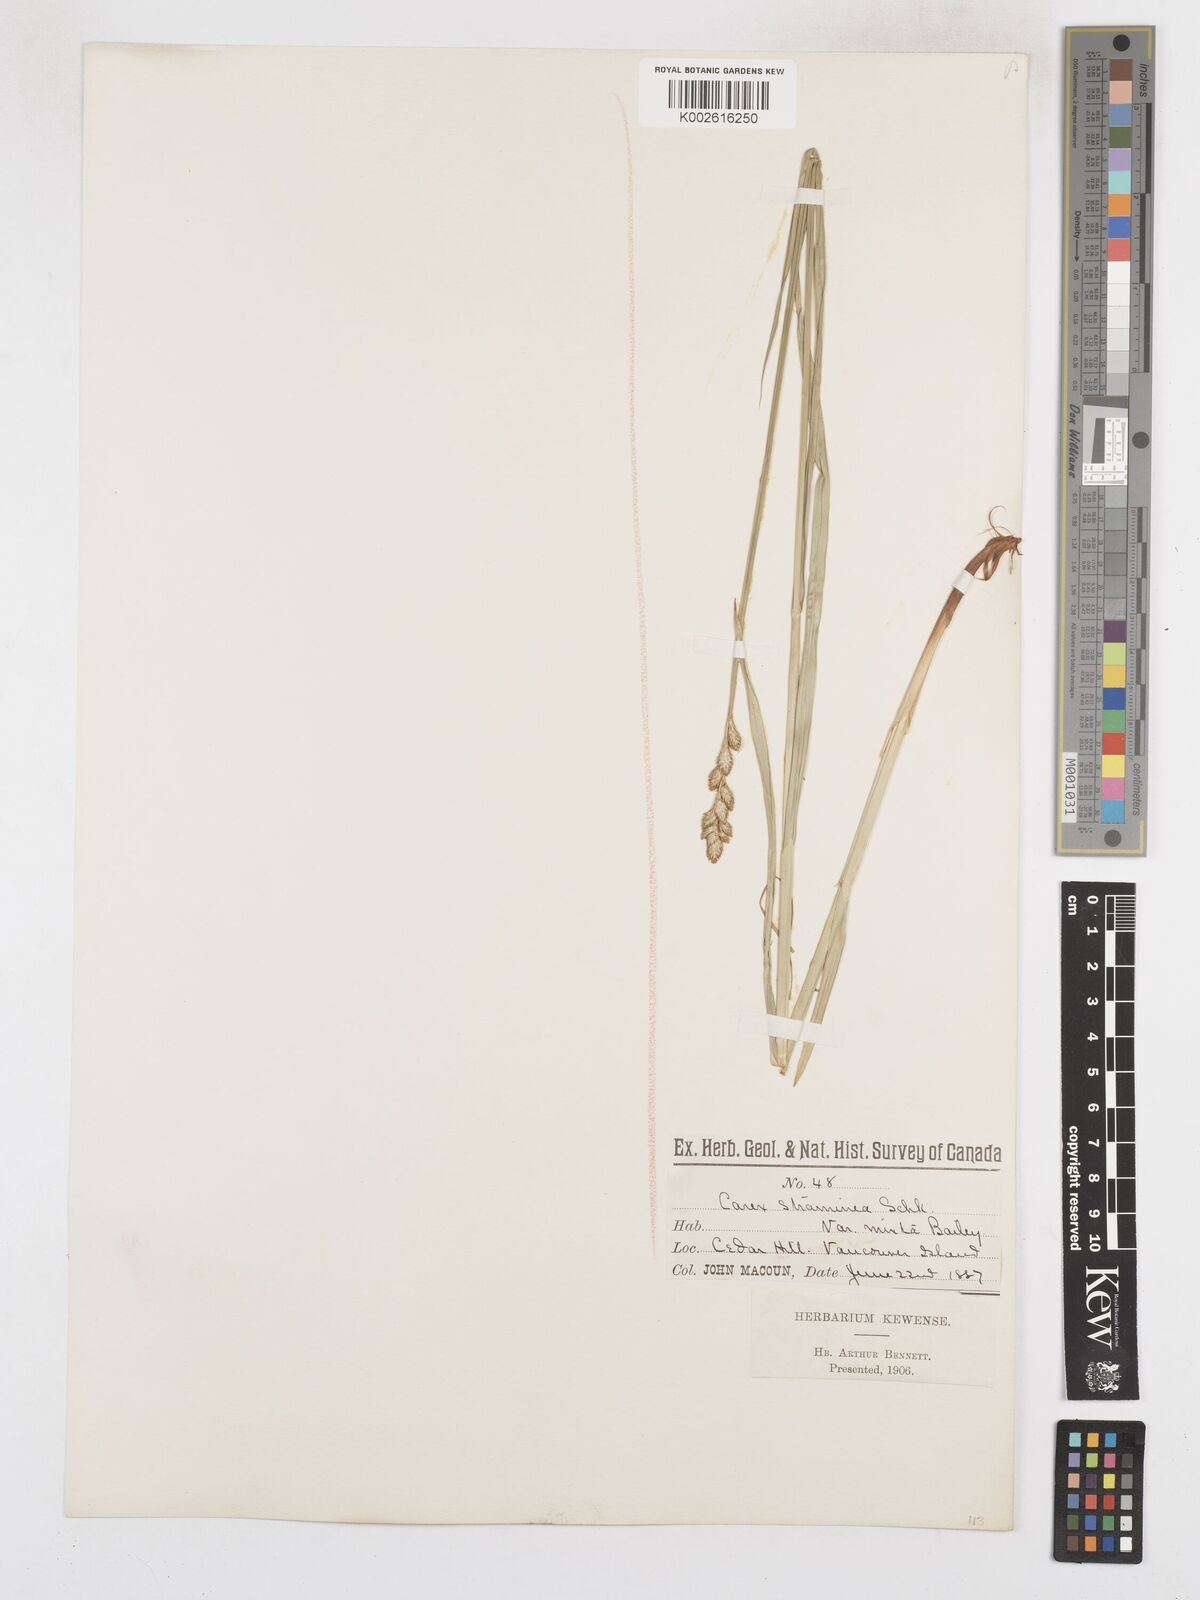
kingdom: Plantae
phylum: Tracheophyta
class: Liliopsida
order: Poales
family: Cyperaceae
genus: Carex
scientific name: Carex feta
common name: Green-sheathed sedge
